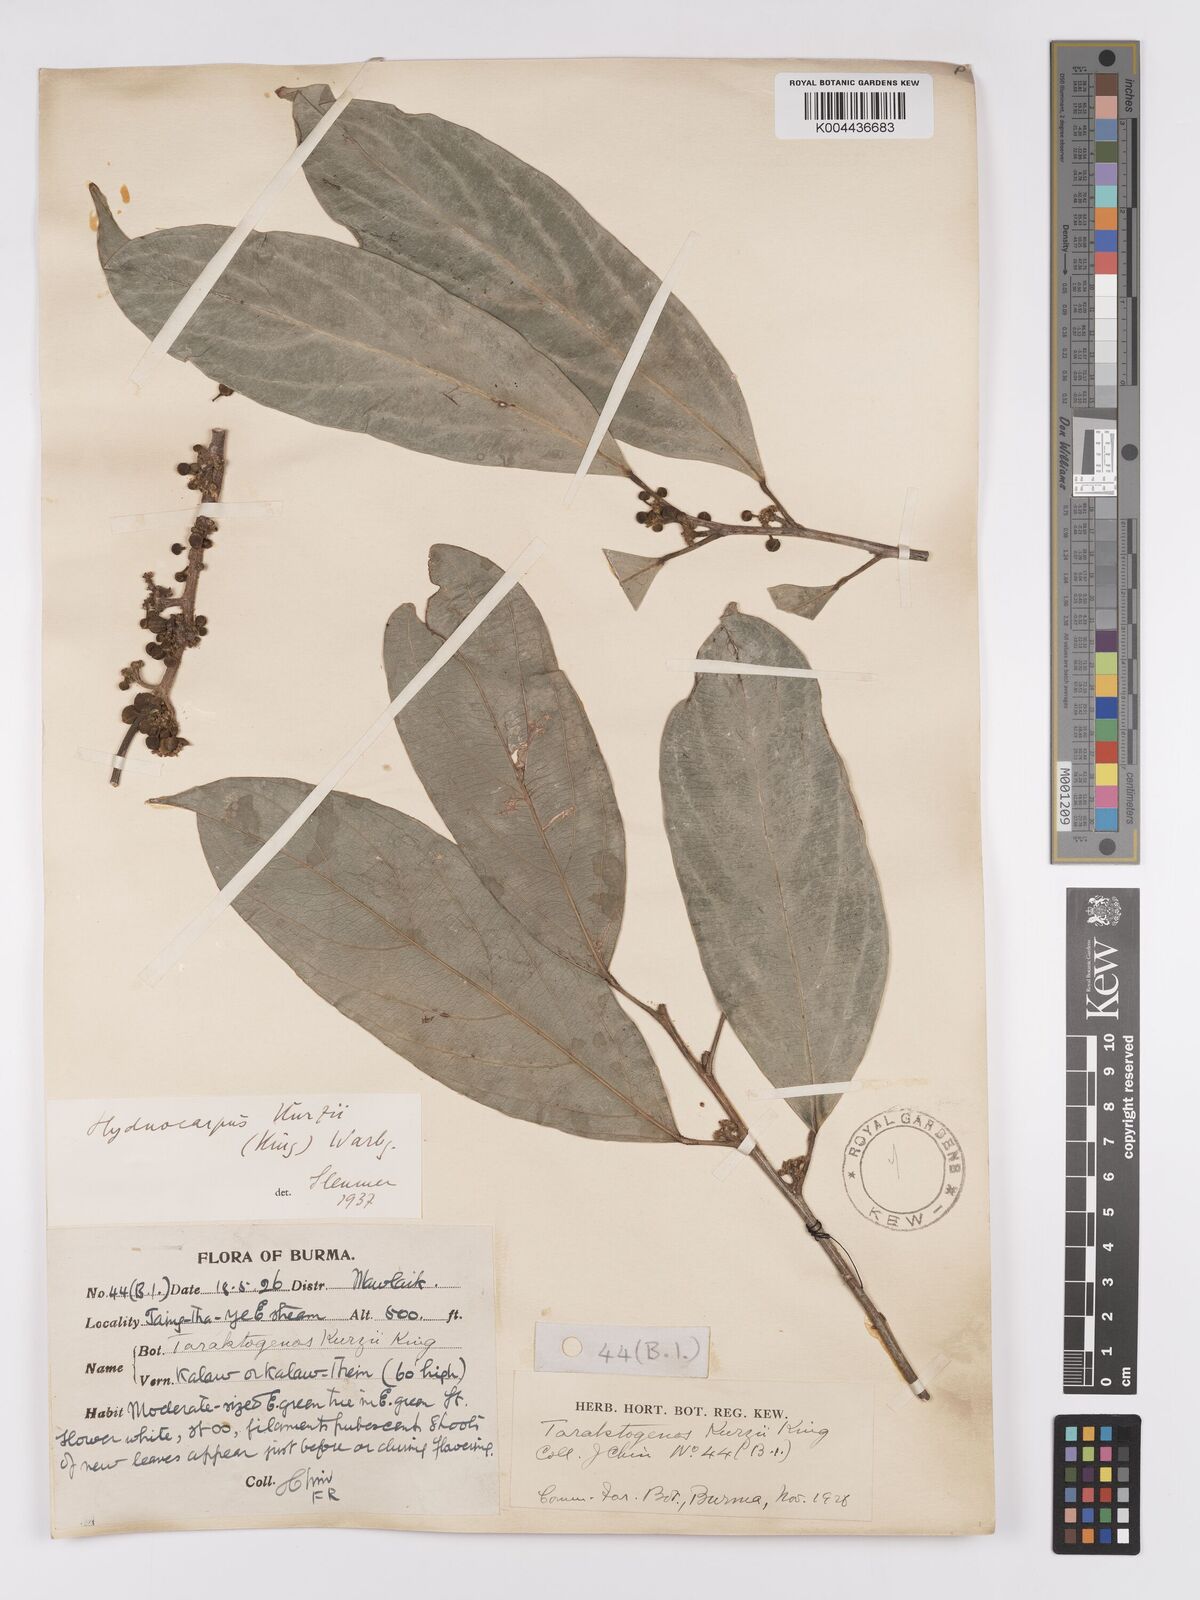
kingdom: Plantae
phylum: Tracheophyta
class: Magnoliopsida
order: Malpighiales
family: Achariaceae
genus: Hydnocarpus
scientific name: Hydnocarpus kurzii
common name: Chaulmoogra
